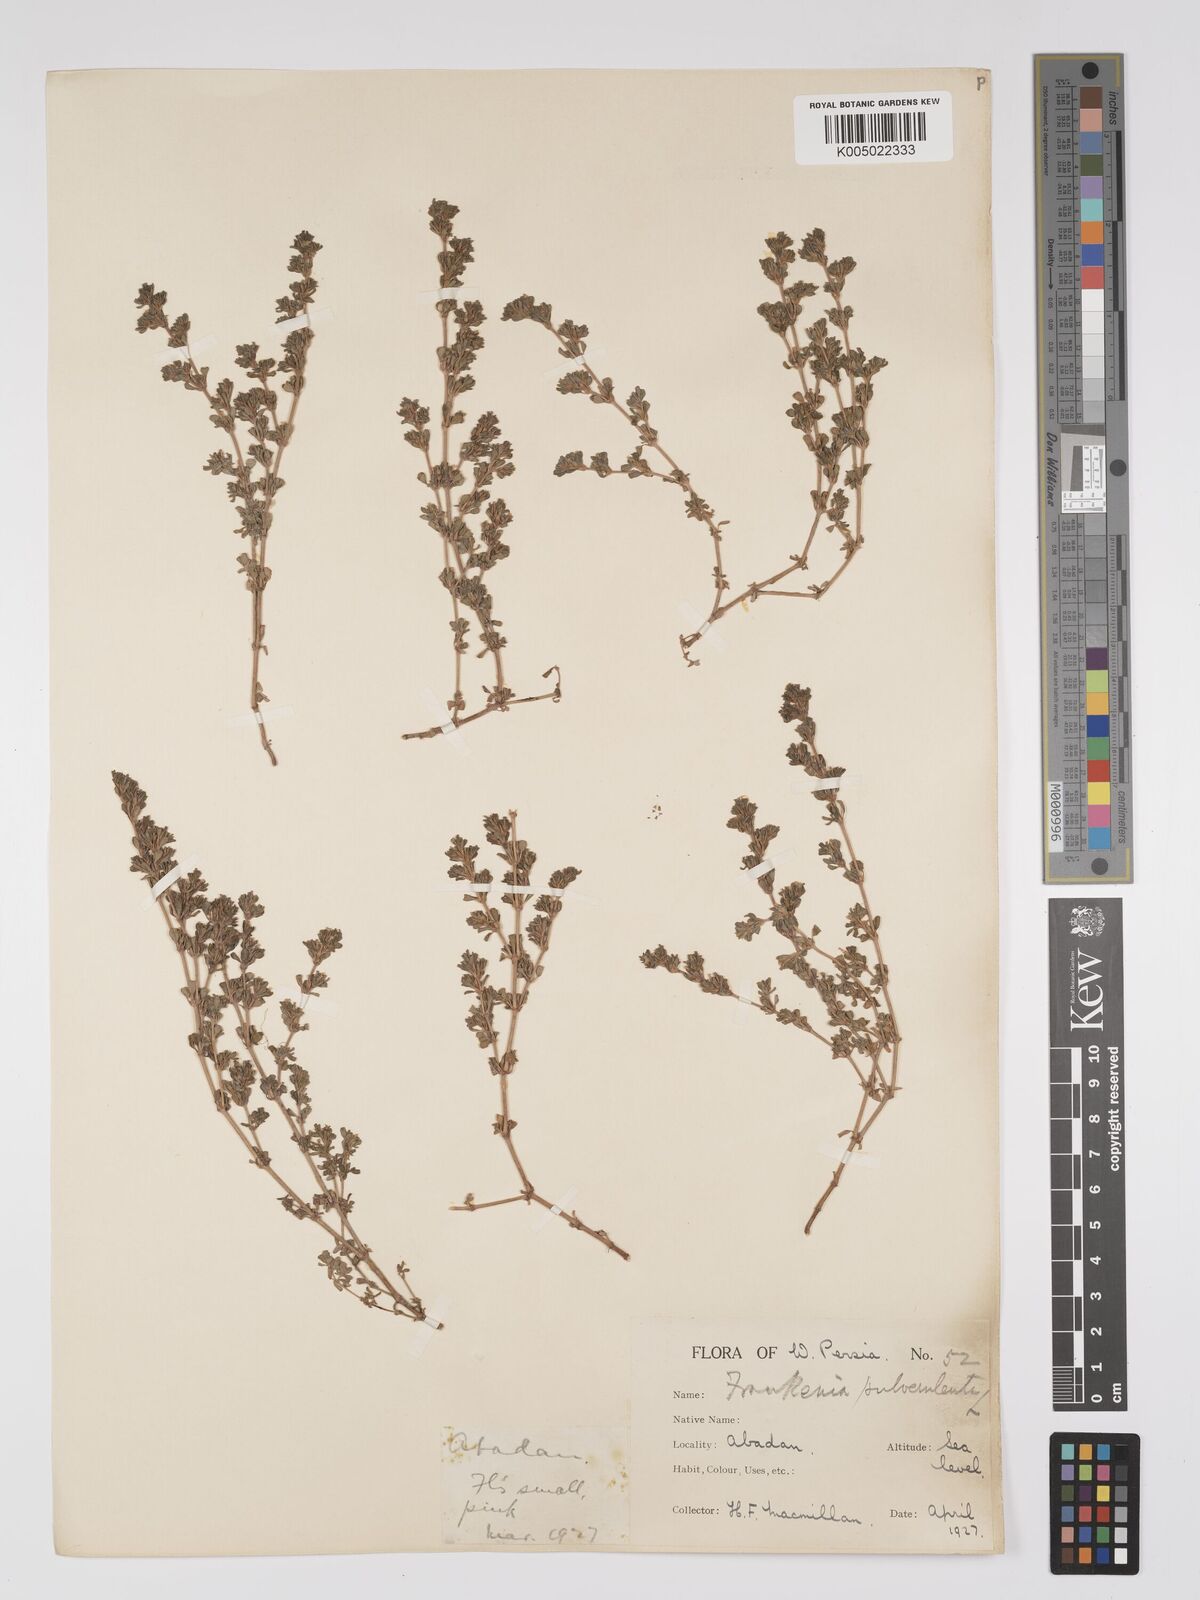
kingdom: Plantae
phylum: Tracheophyta
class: Magnoliopsida
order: Caryophyllales
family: Frankeniaceae
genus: Frankenia
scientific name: Frankenia pulverulenta
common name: European seaheath
